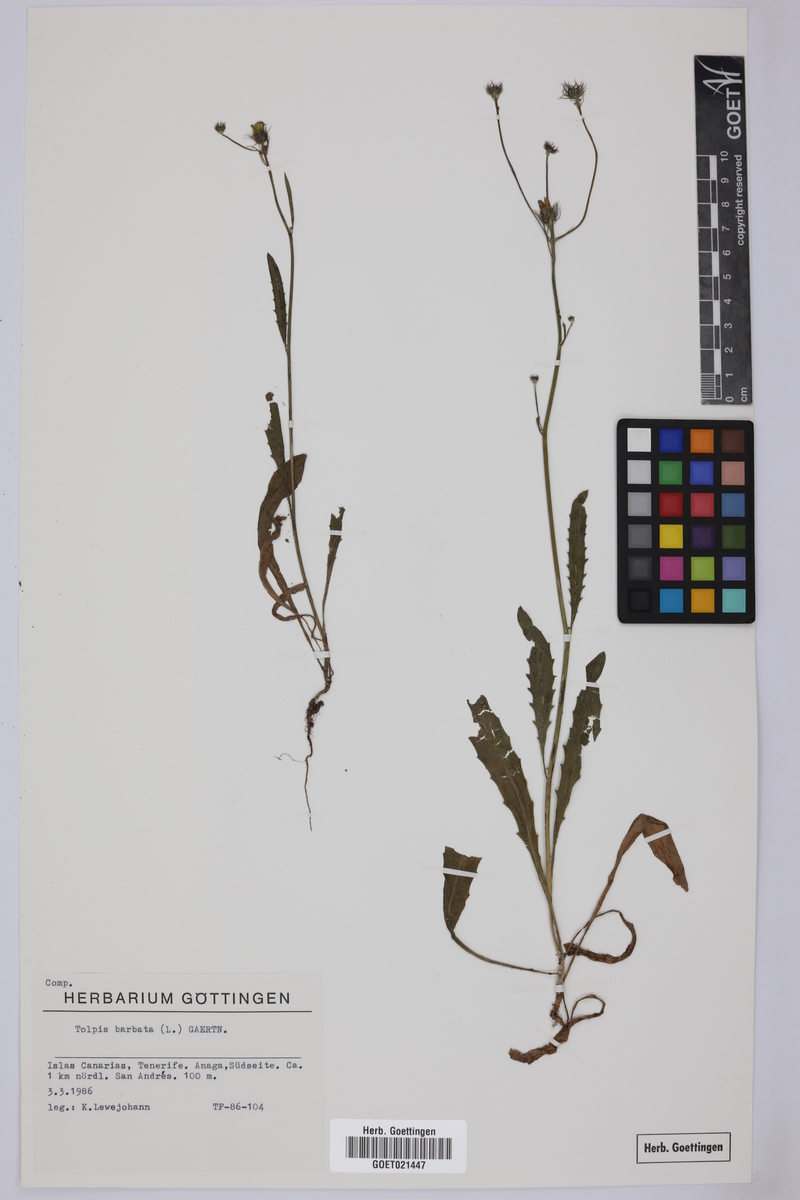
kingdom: Plantae
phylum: Tracheophyta
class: Magnoliopsida
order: Asterales
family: Asteraceae
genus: Tolpis
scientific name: Tolpis barbata
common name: Yellow hawkweed
